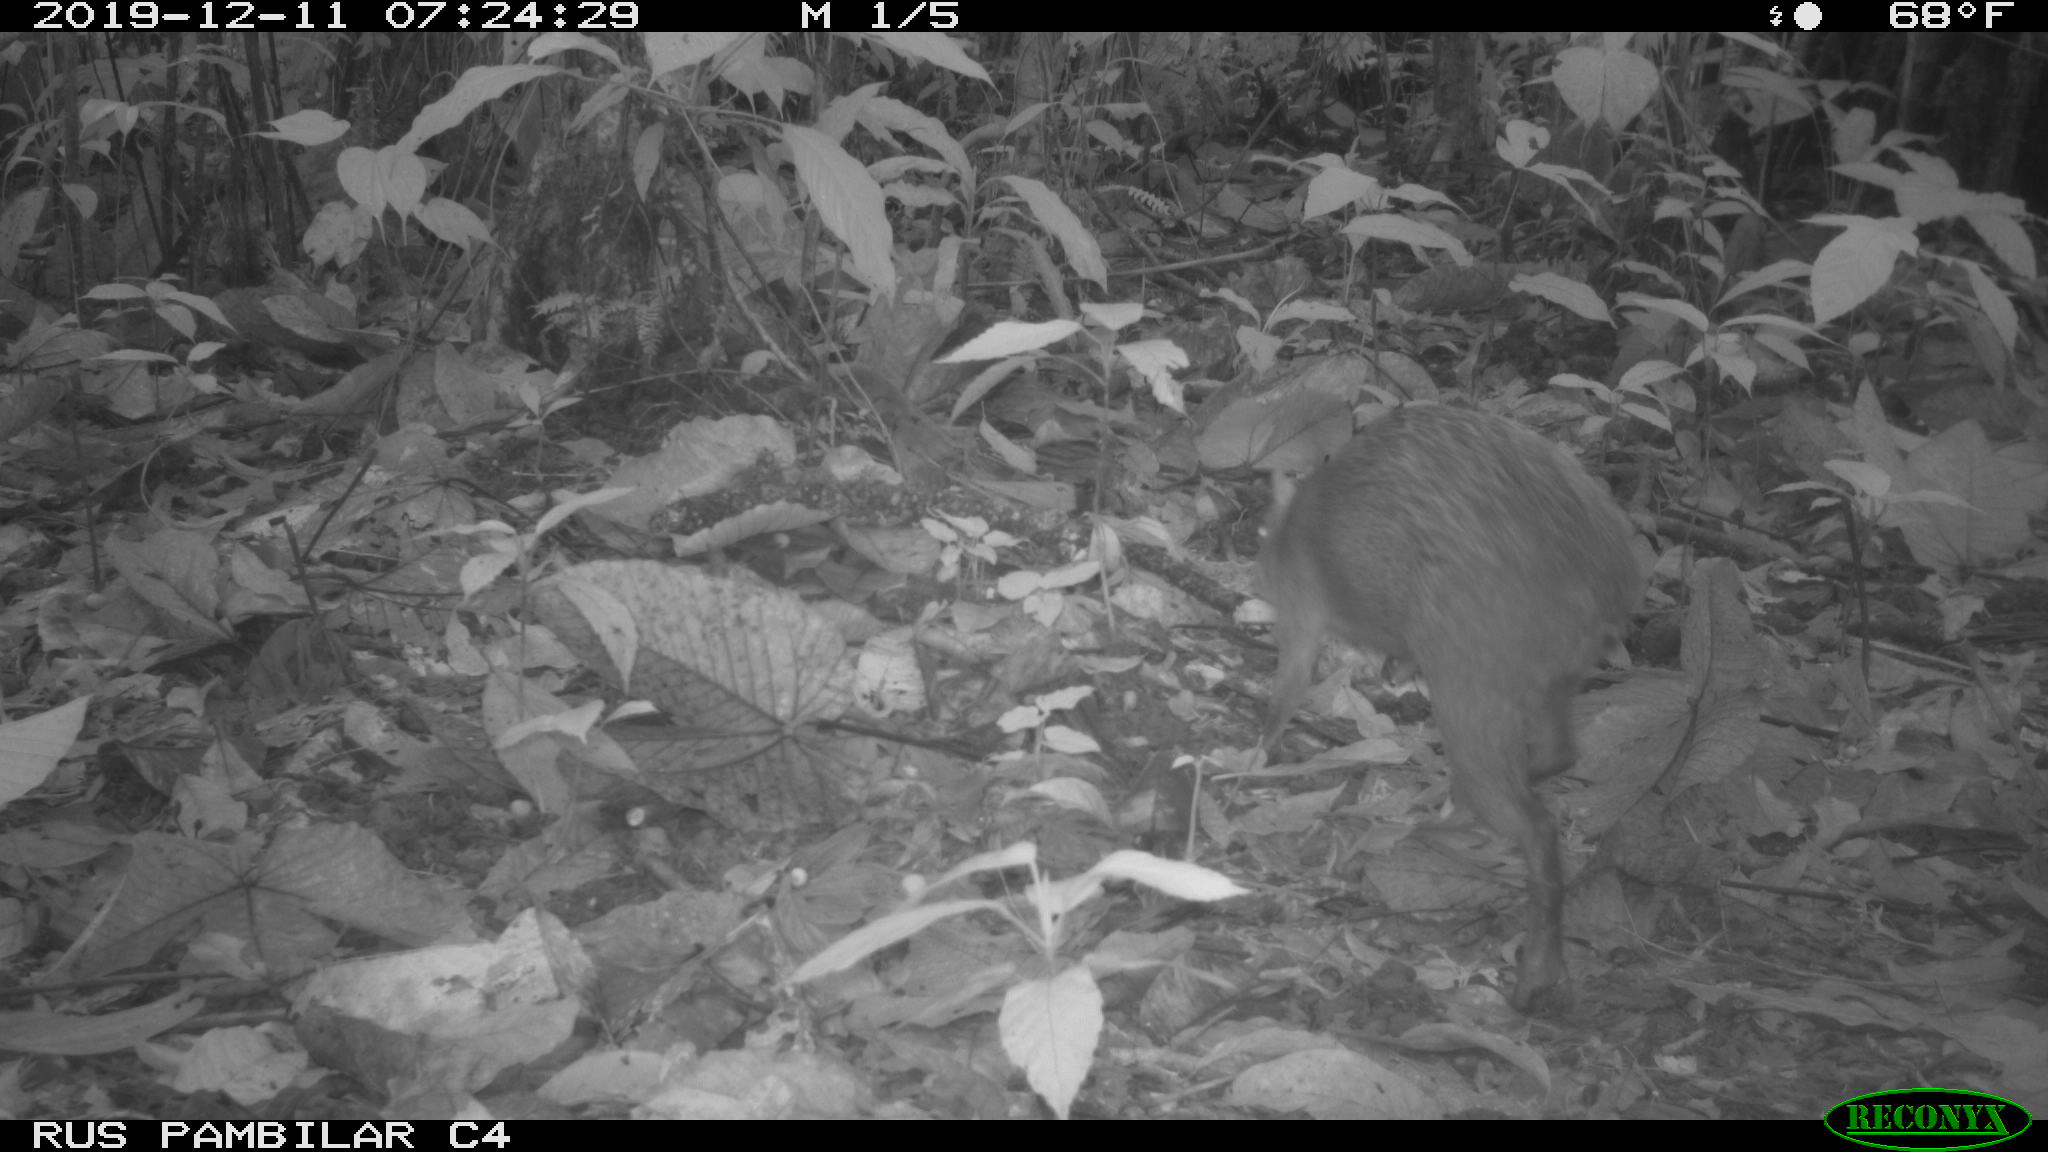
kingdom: Animalia
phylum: Chordata
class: Mammalia
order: Rodentia
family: Dasyproctidae
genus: Dasyprocta
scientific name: Dasyprocta punctata
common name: Central american agouti
